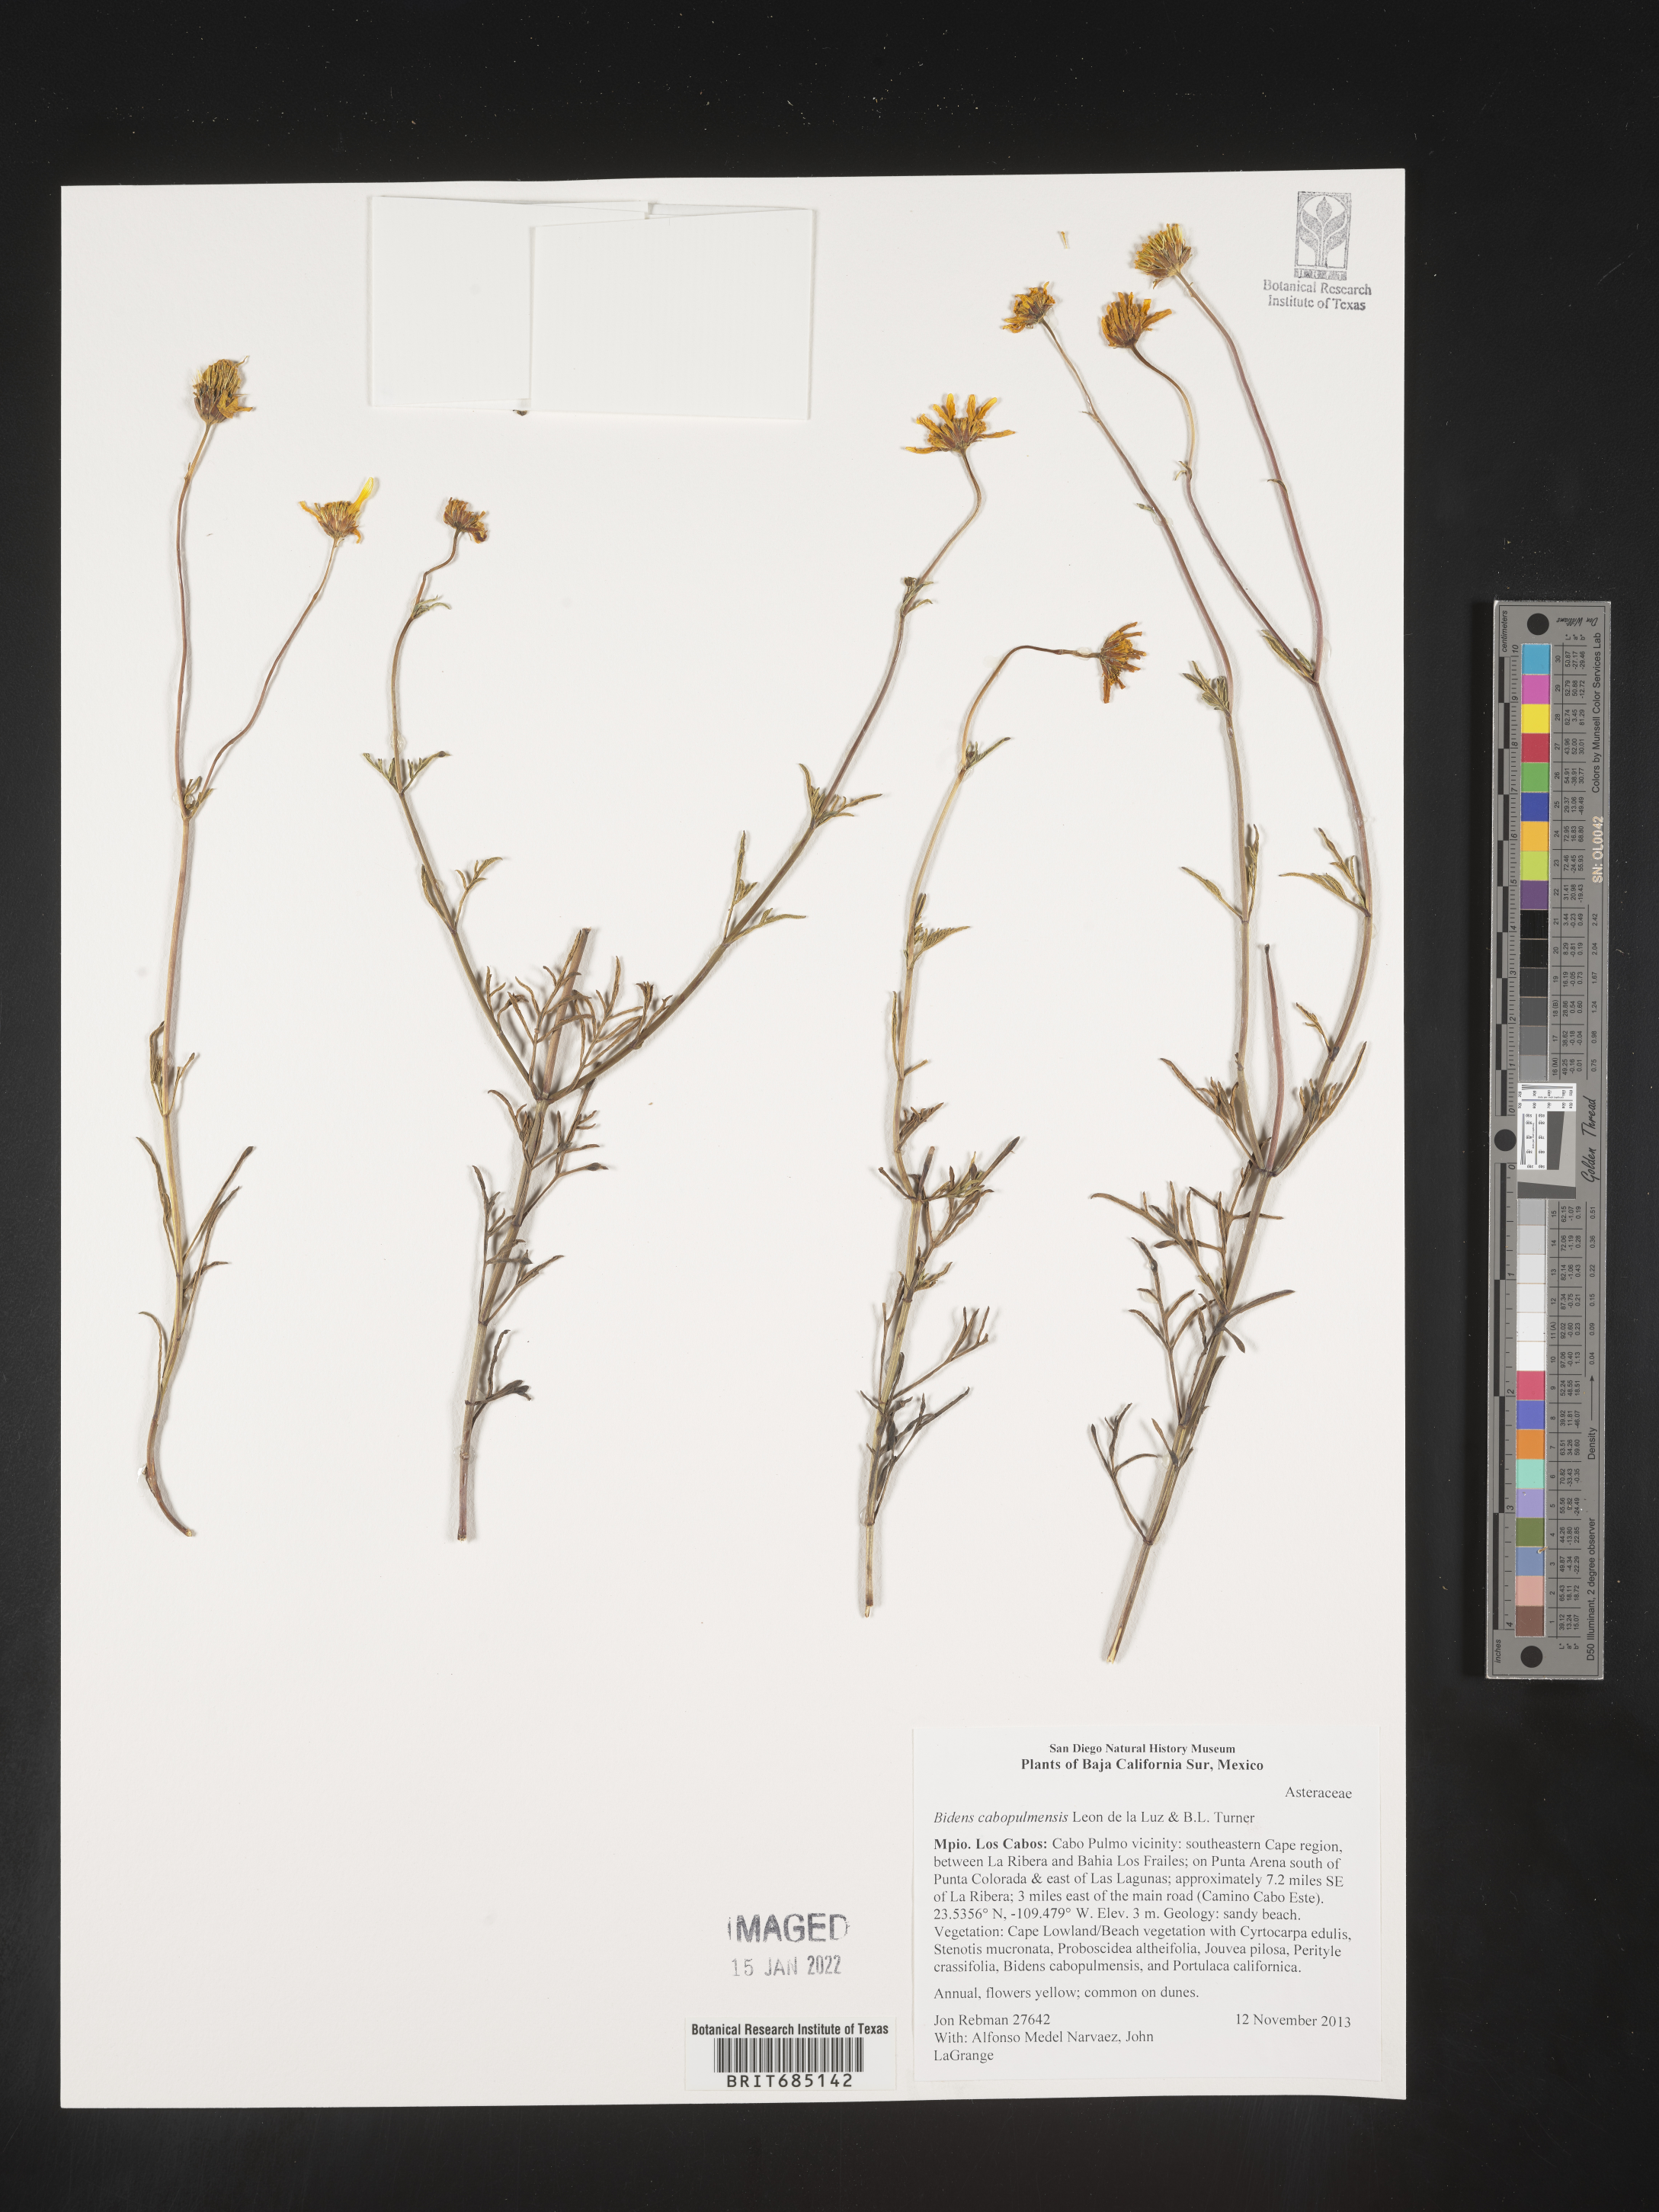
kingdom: Plantae
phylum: Tracheophyta
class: Magnoliopsida
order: Asterales
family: Asteraceae
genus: Bidens
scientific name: Bidens
